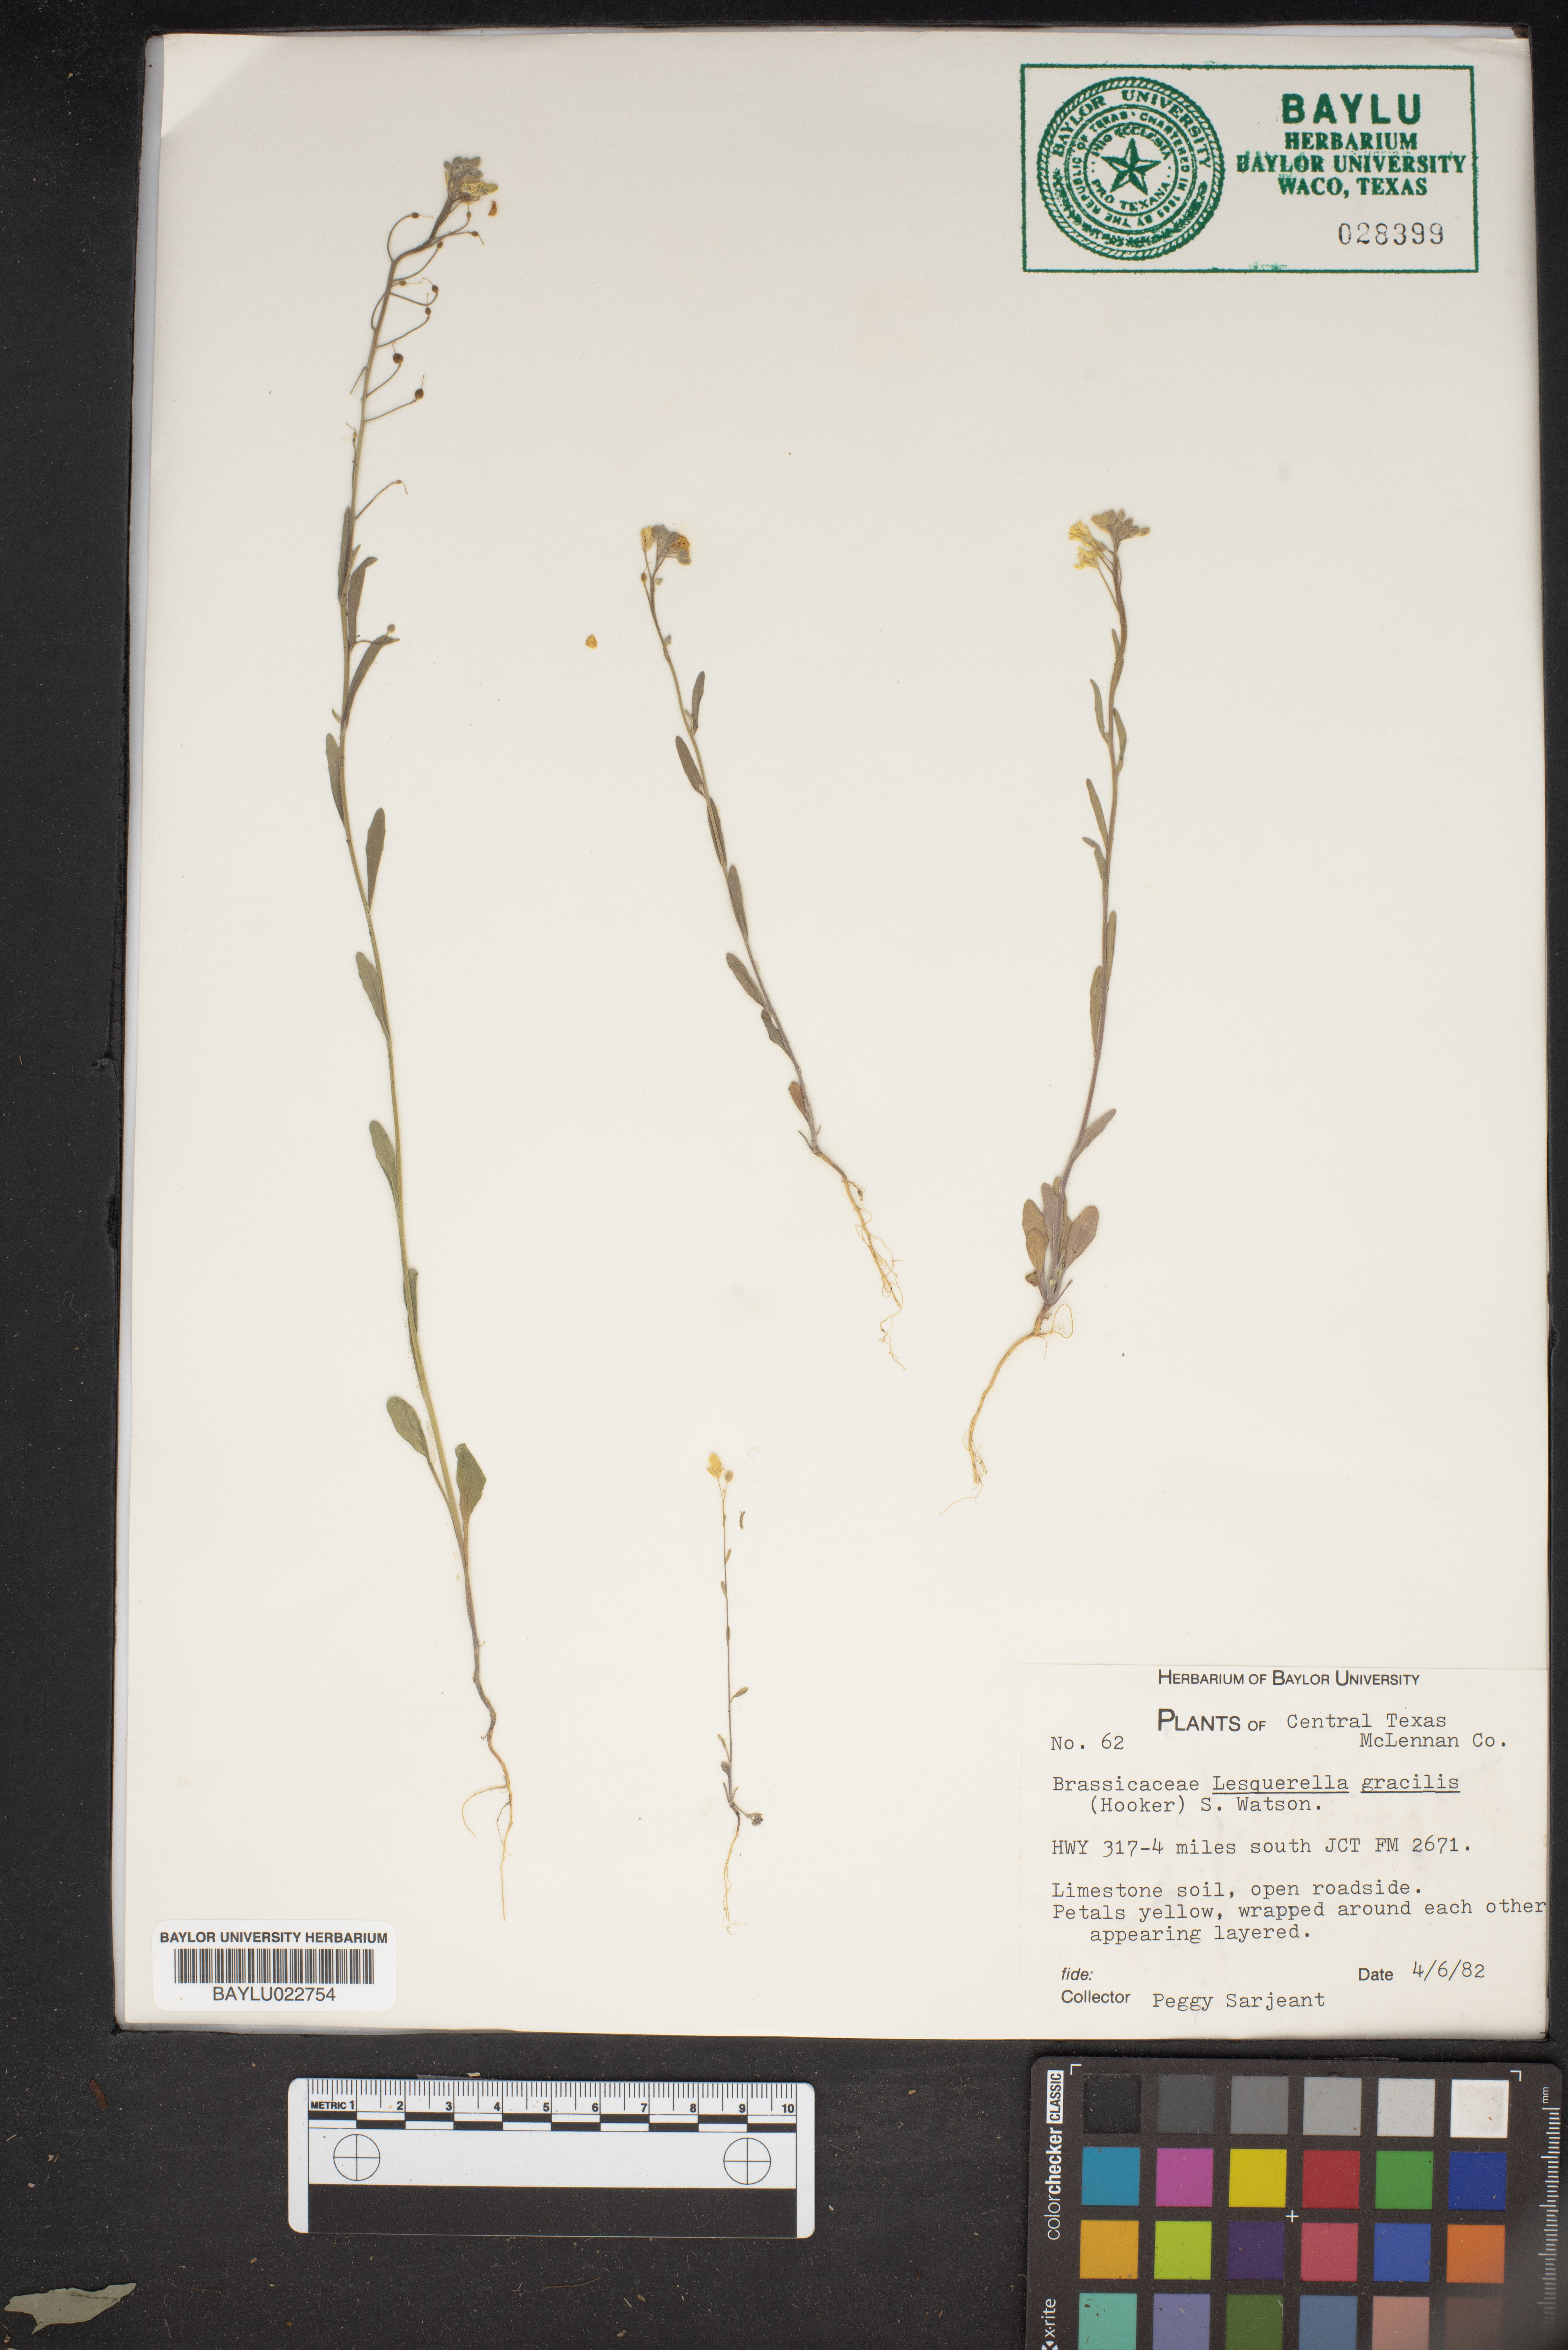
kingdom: Plantae
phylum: Tracheophyta
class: Magnoliopsida
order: Brassicales
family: Brassicaceae
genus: Physaria
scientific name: Physaria gracilis
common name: Spreading bladderpod
